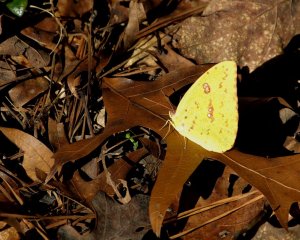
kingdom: Animalia
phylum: Arthropoda
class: Insecta
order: Lepidoptera
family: Pieridae
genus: Phoebis
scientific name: Phoebis sennae
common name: Cloudless Sulphur
